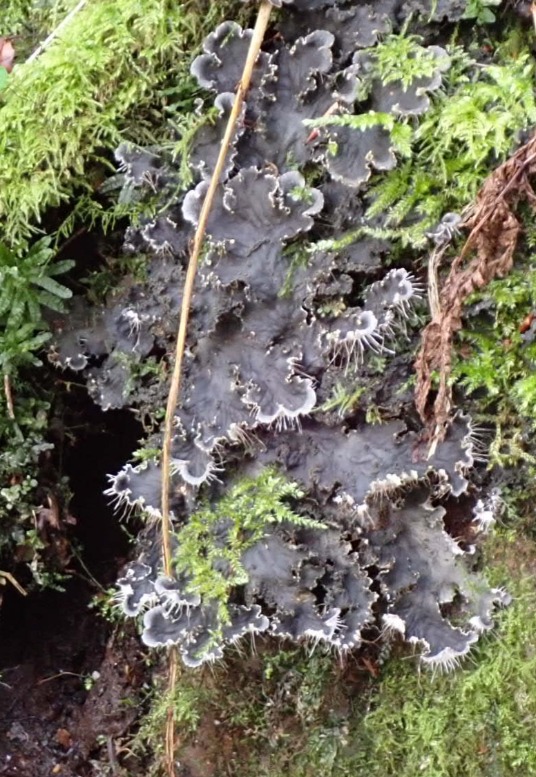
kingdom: Fungi
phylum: Ascomycota
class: Lecanoromycetes
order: Peltigerales
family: Peltigeraceae
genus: Peltigera
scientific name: Peltigera praetextata
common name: Kruset skjoldlav
